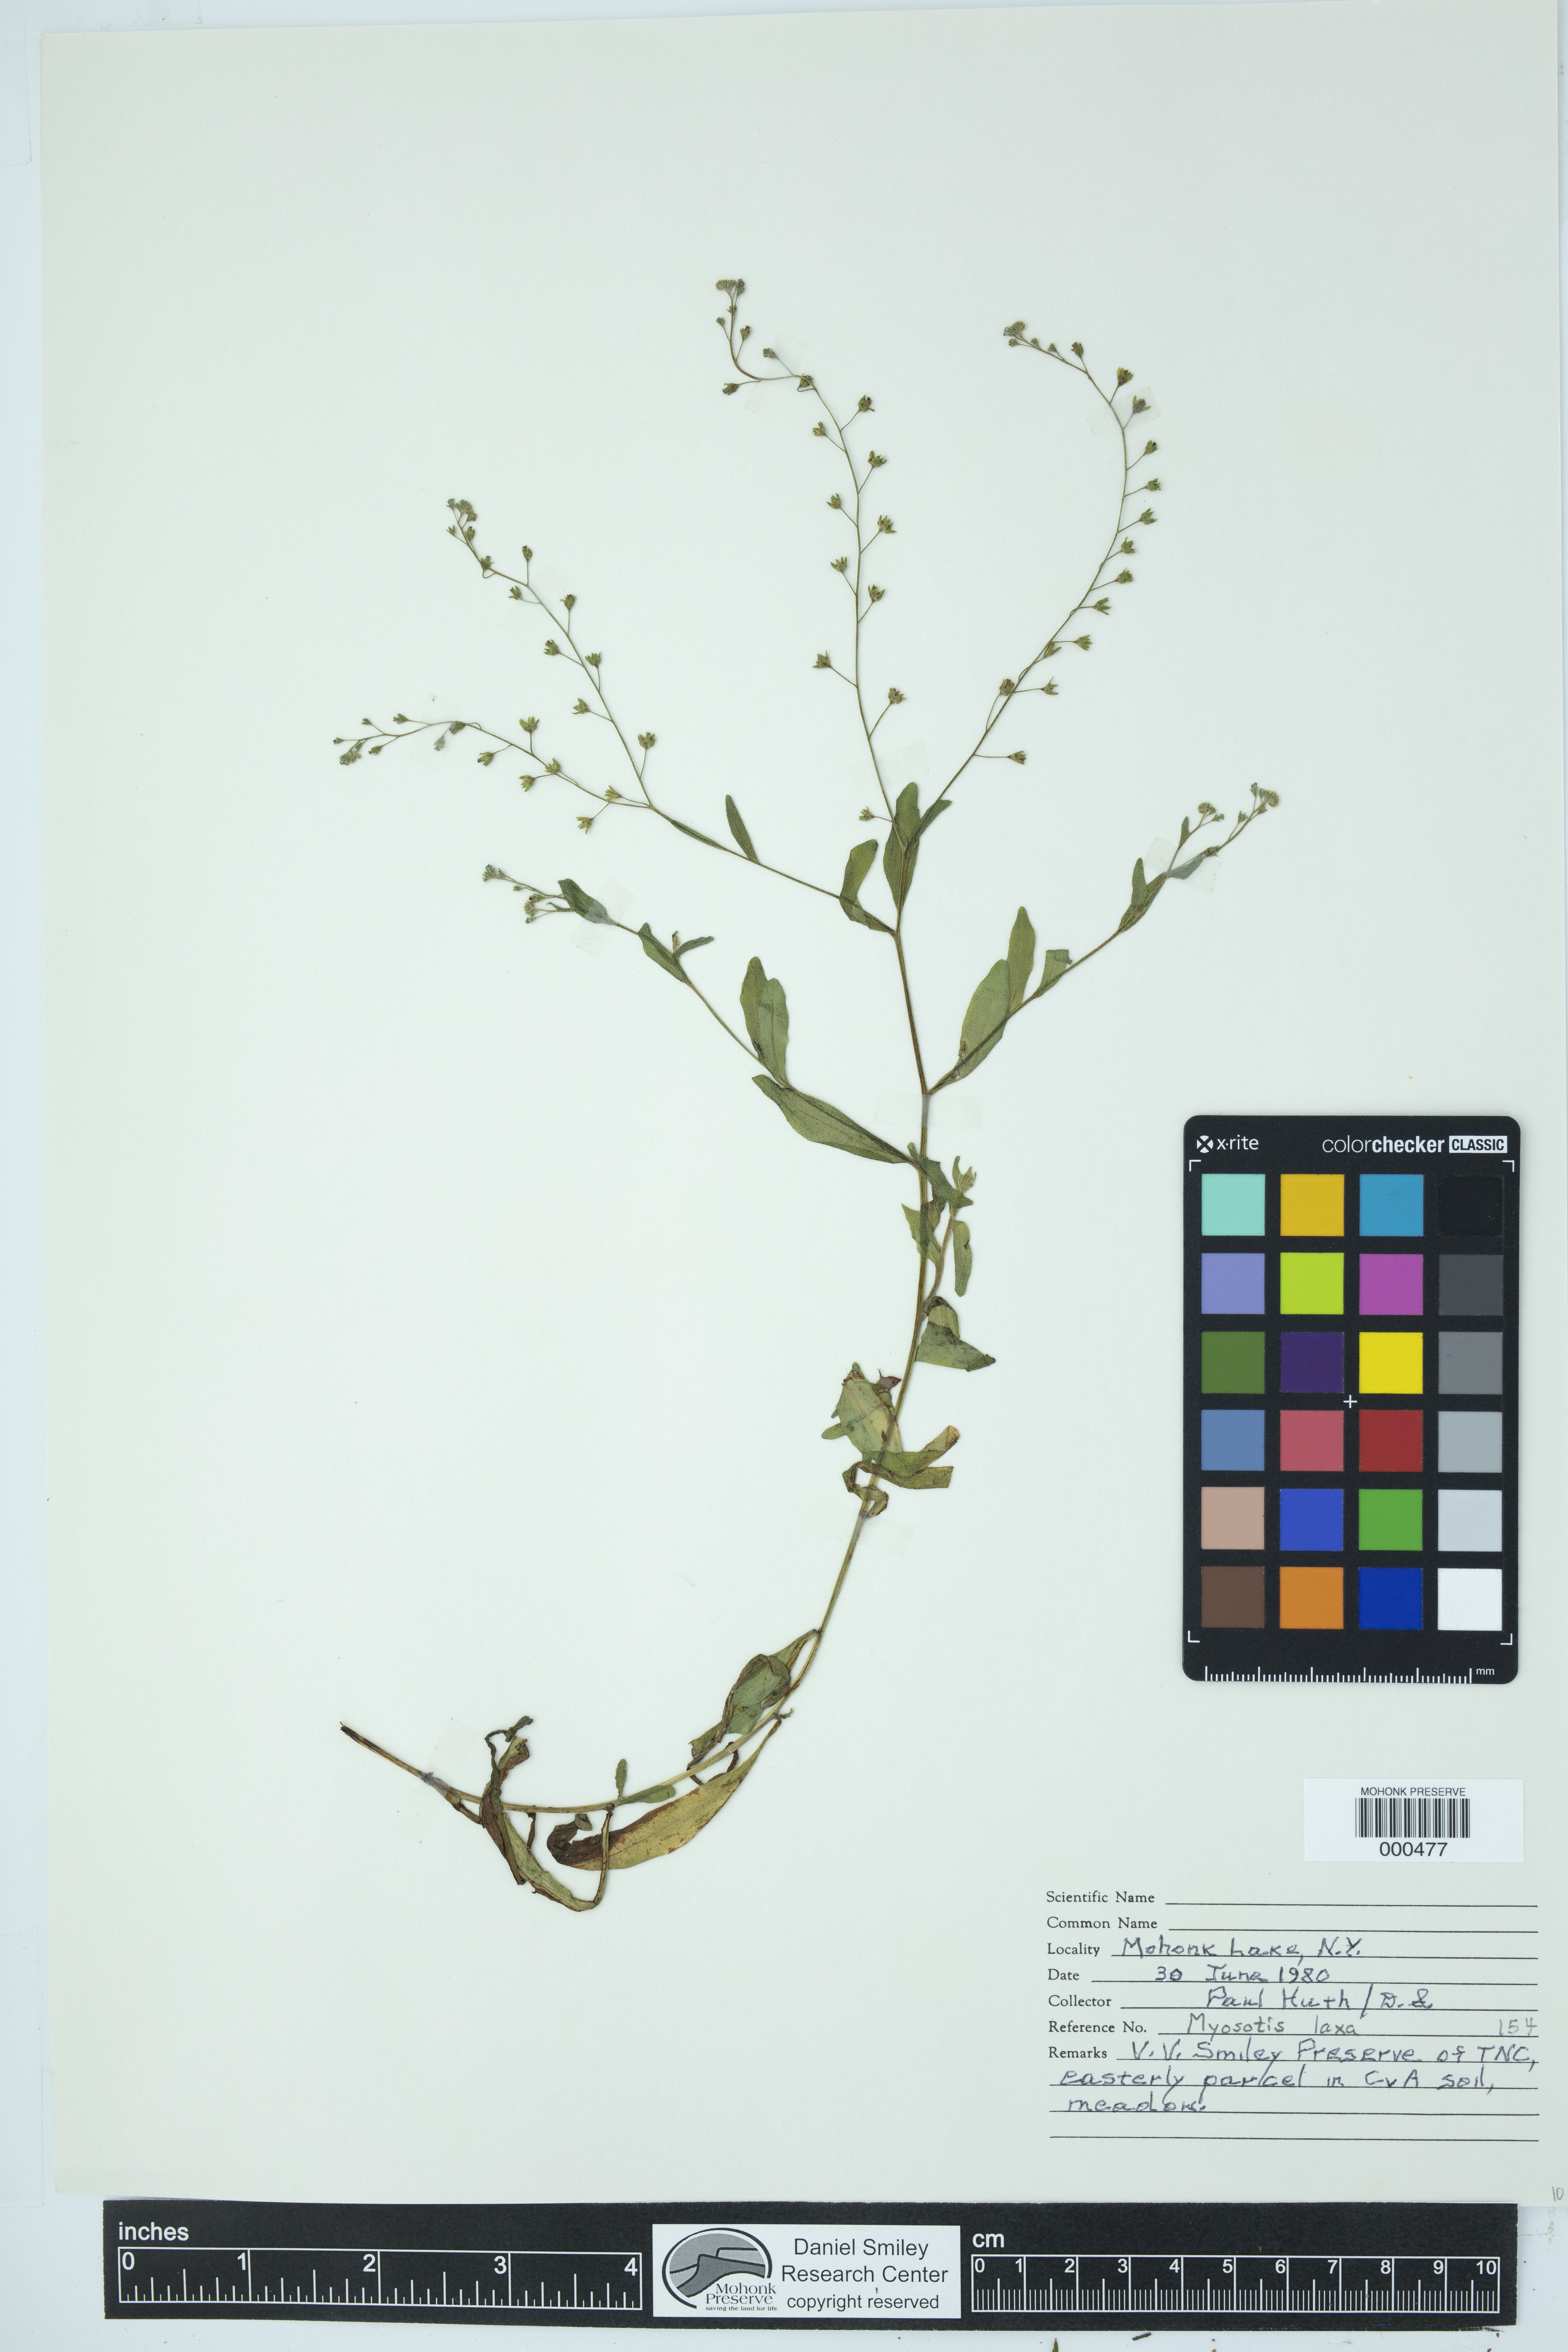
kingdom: Plantae
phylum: Tracheophyta
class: Magnoliopsida
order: Boraginales
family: Boraginaceae
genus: Myosotis
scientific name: Myosotis laxa
